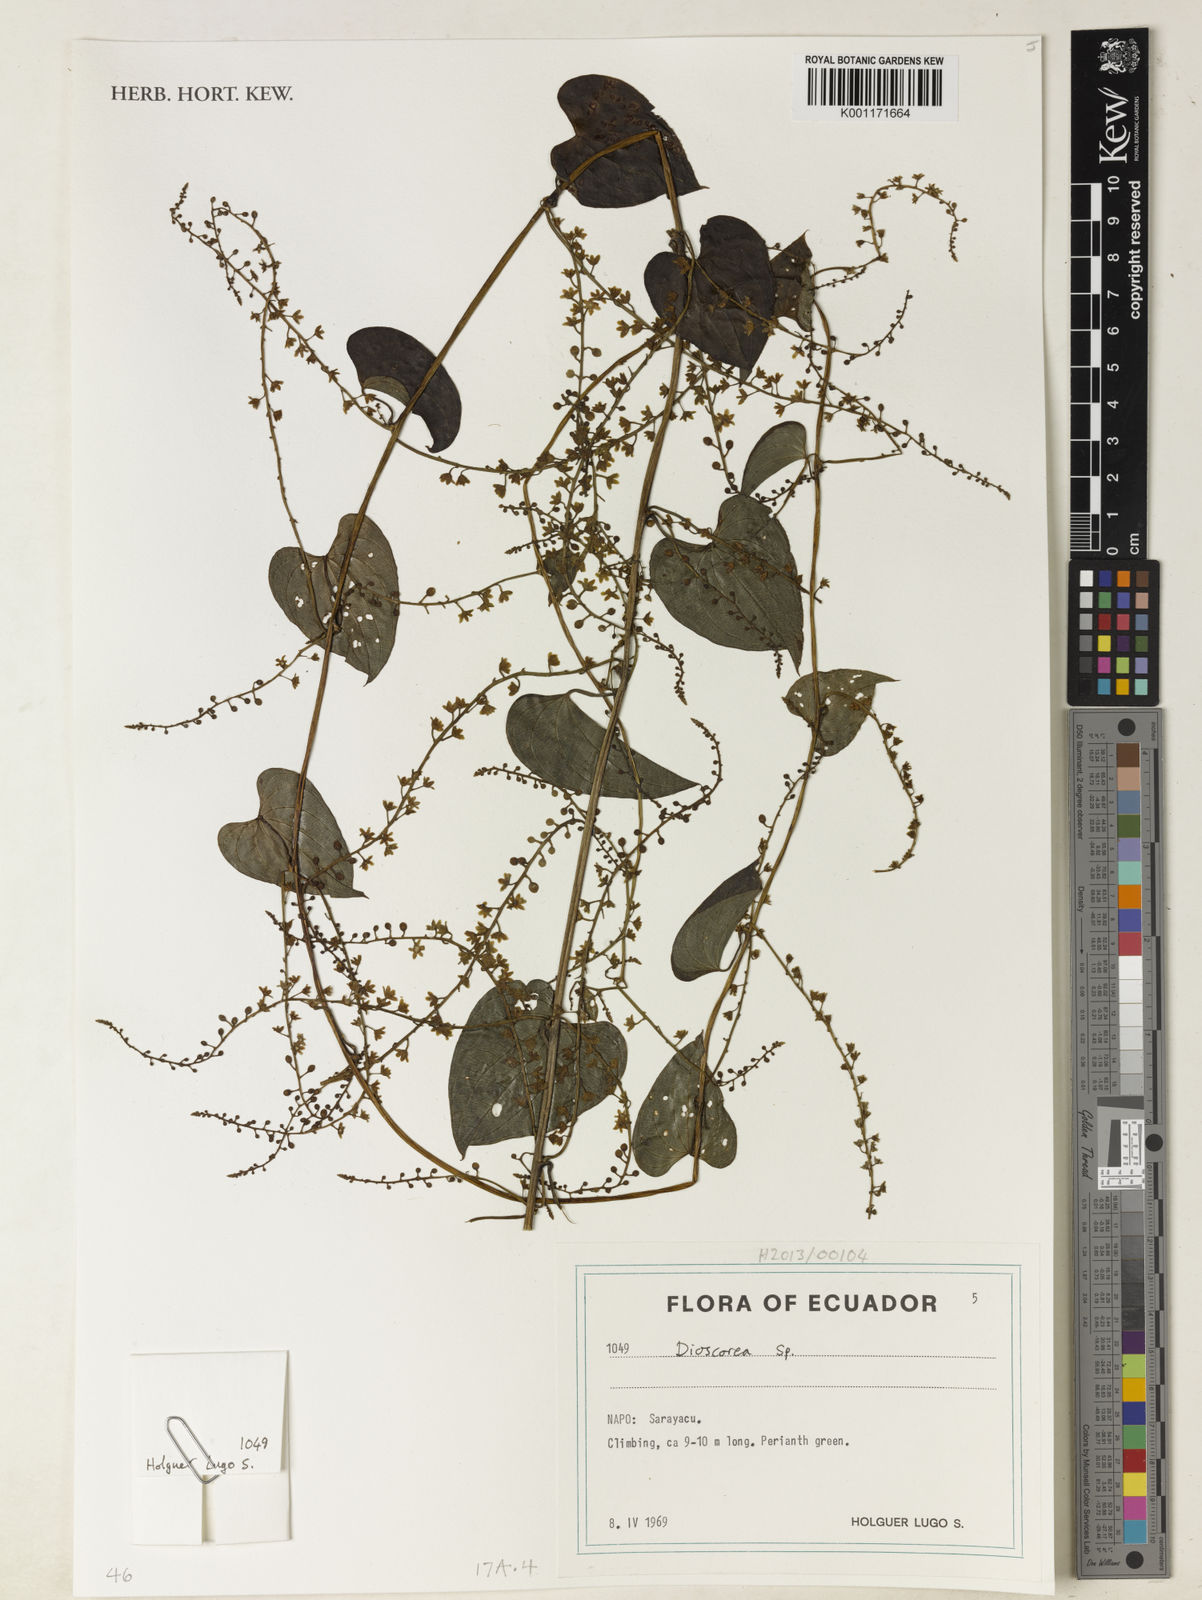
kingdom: Plantae
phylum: Tracheophyta
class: Liliopsida
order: Dioscoreales
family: Dioscoreaceae
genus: Dioscorea
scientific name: Dioscorea glandulosa
